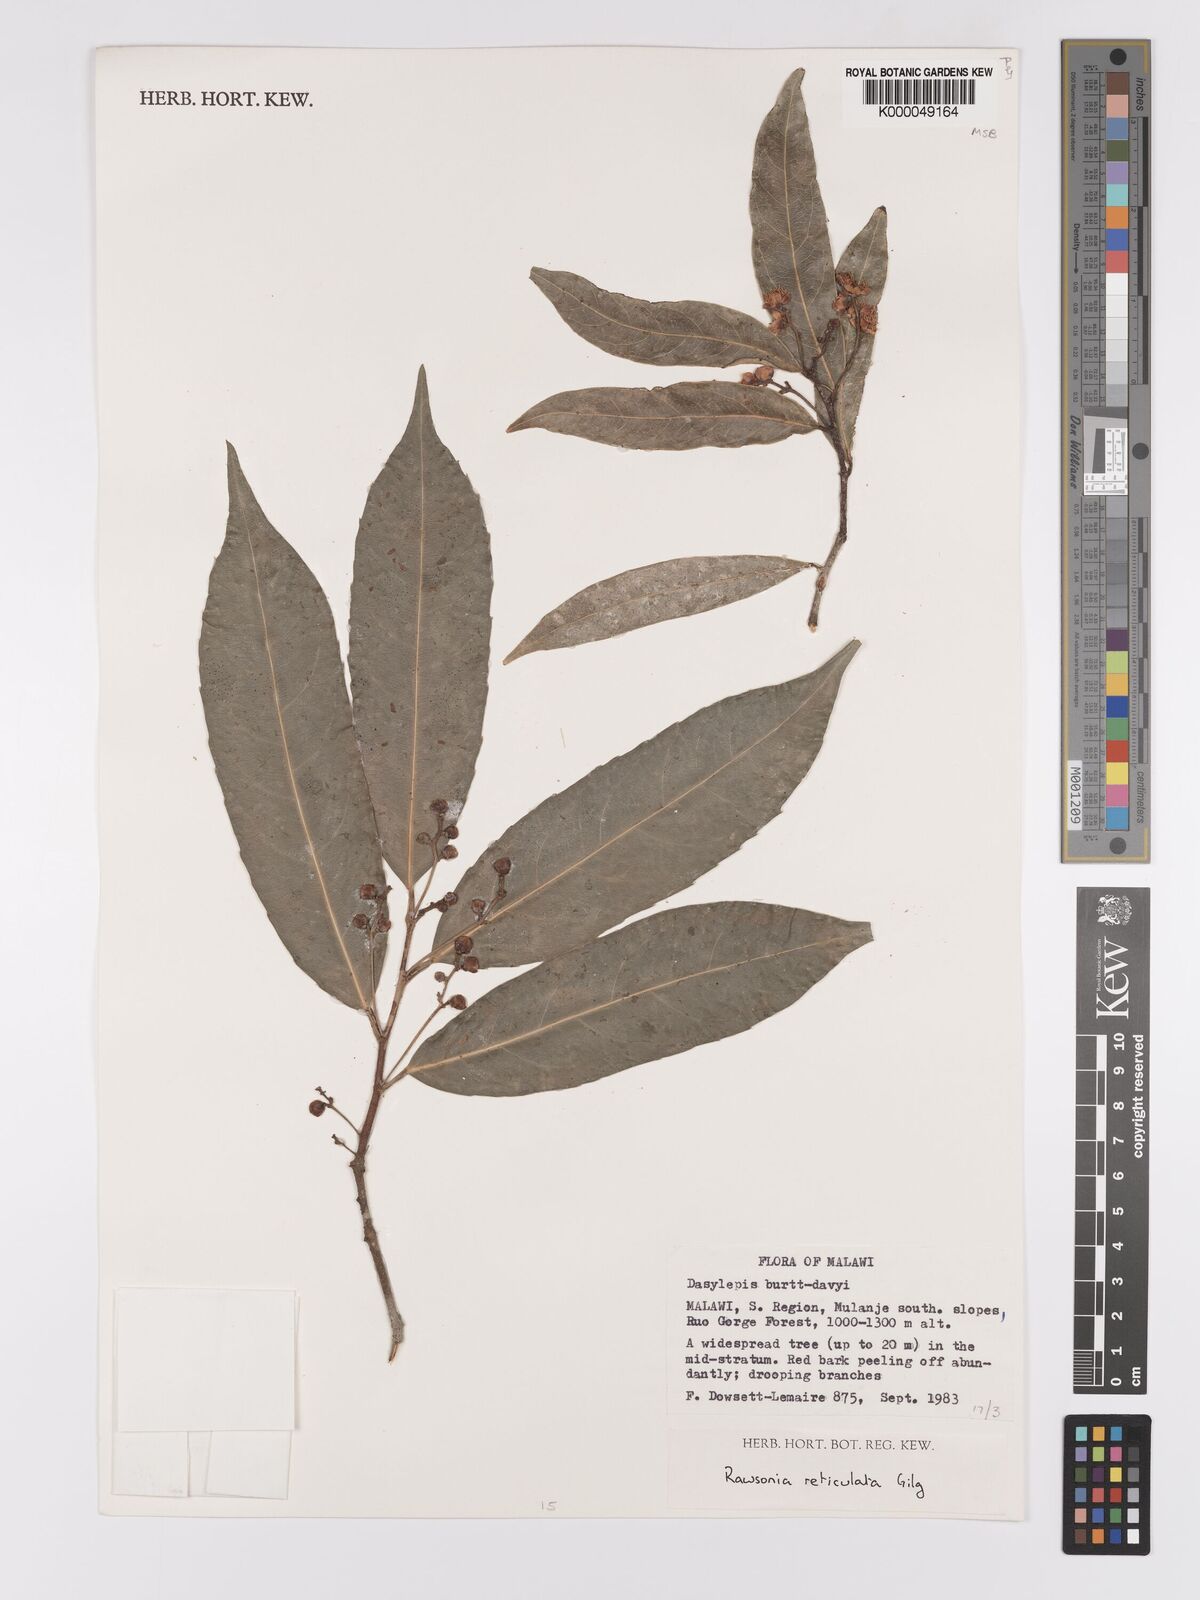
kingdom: Plantae
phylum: Tracheophyta
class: Magnoliopsida
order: Malpighiales
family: Achariaceae
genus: Rawsonia
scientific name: Rawsonia burtt-davyi
